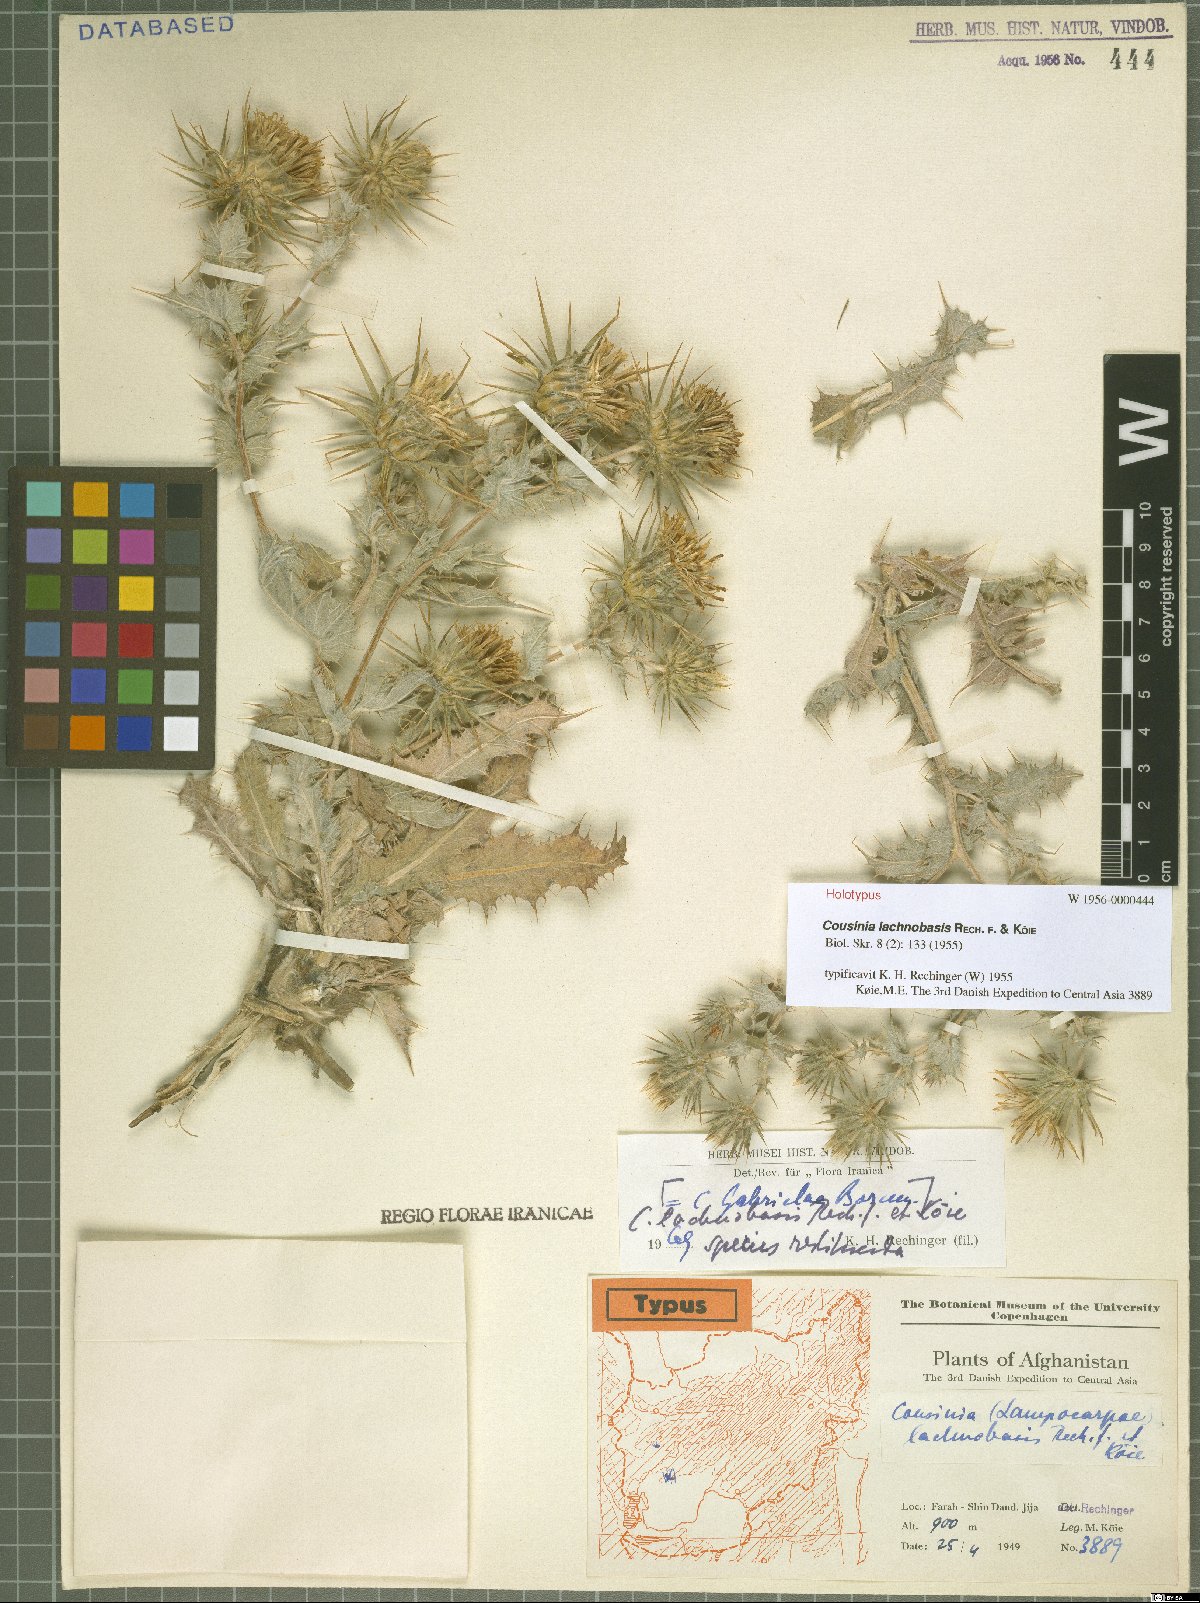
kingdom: Plantae
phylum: Tracheophyta
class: Magnoliopsida
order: Asterales
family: Asteraceae
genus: Cousinia
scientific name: Cousinia lachnobasis
